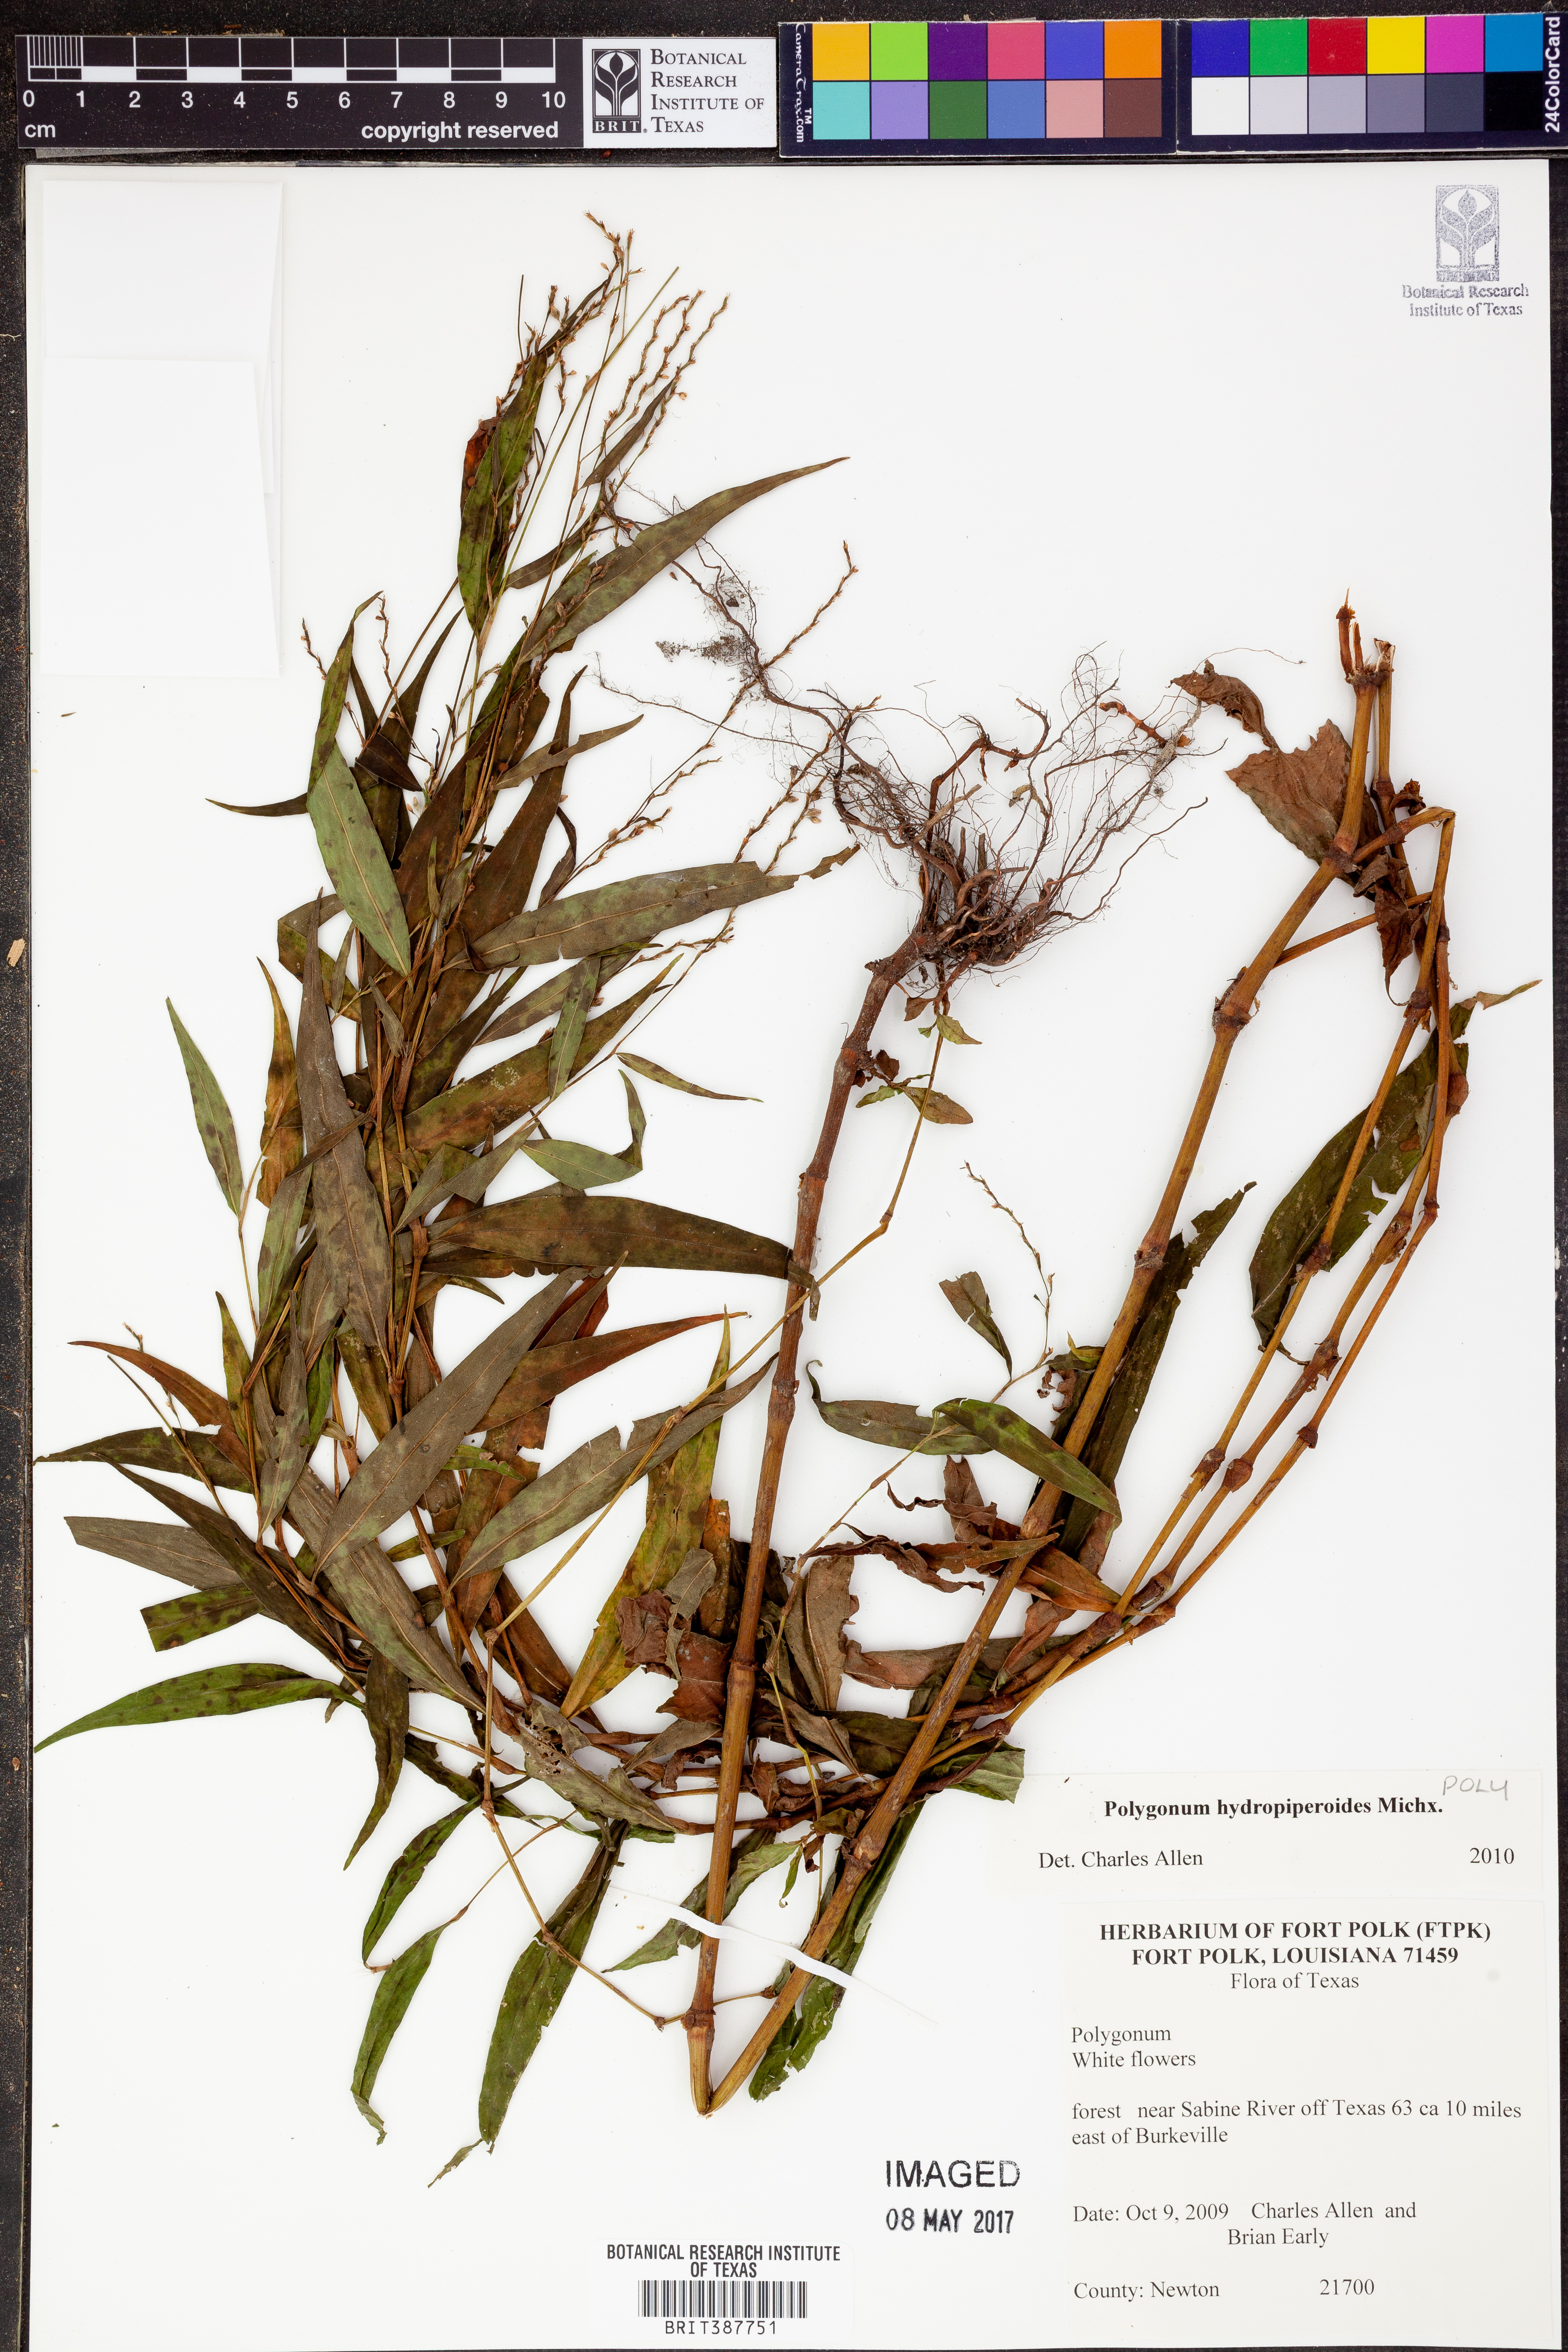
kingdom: Plantae
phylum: Tracheophyta
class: Magnoliopsida
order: Caryophyllales
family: Polygonaceae
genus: Persicaria
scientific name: Persicaria hydropiperoides
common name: Swamp smartweed
